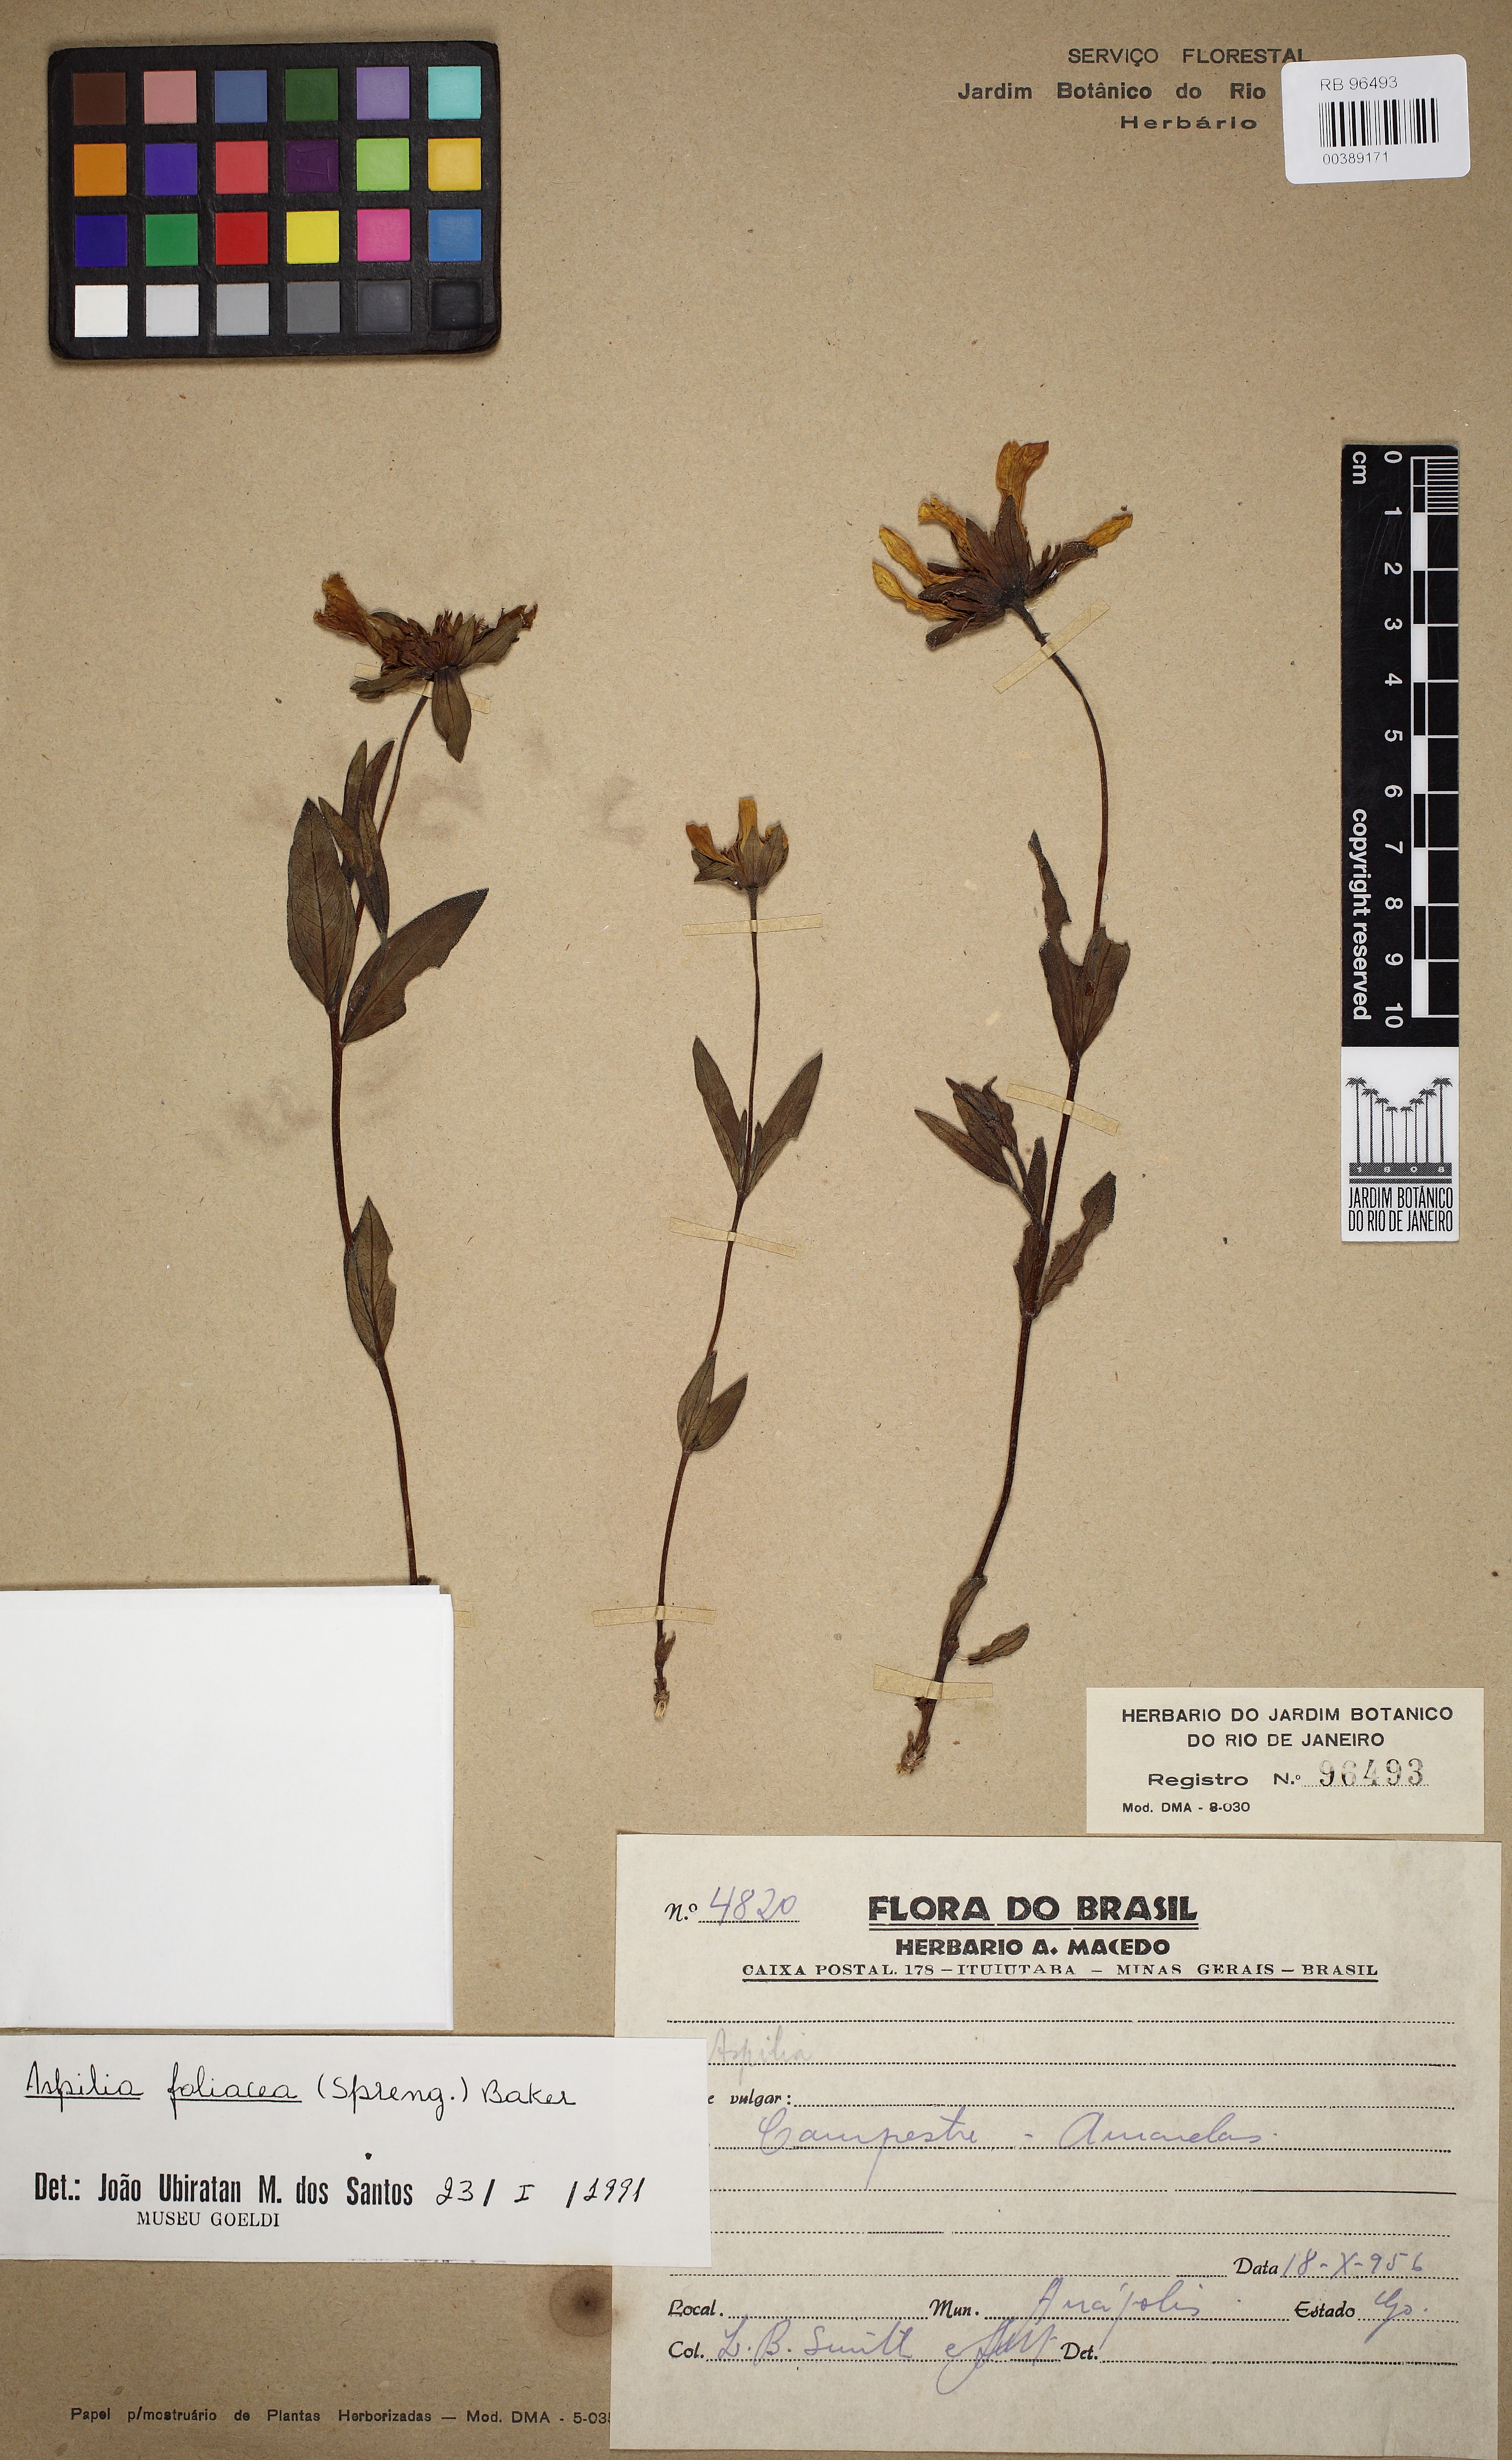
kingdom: Plantae
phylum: Tracheophyta
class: Magnoliopsida
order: Asterales
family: Asteraceae
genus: Wedelia
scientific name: Wedelia foliacea
